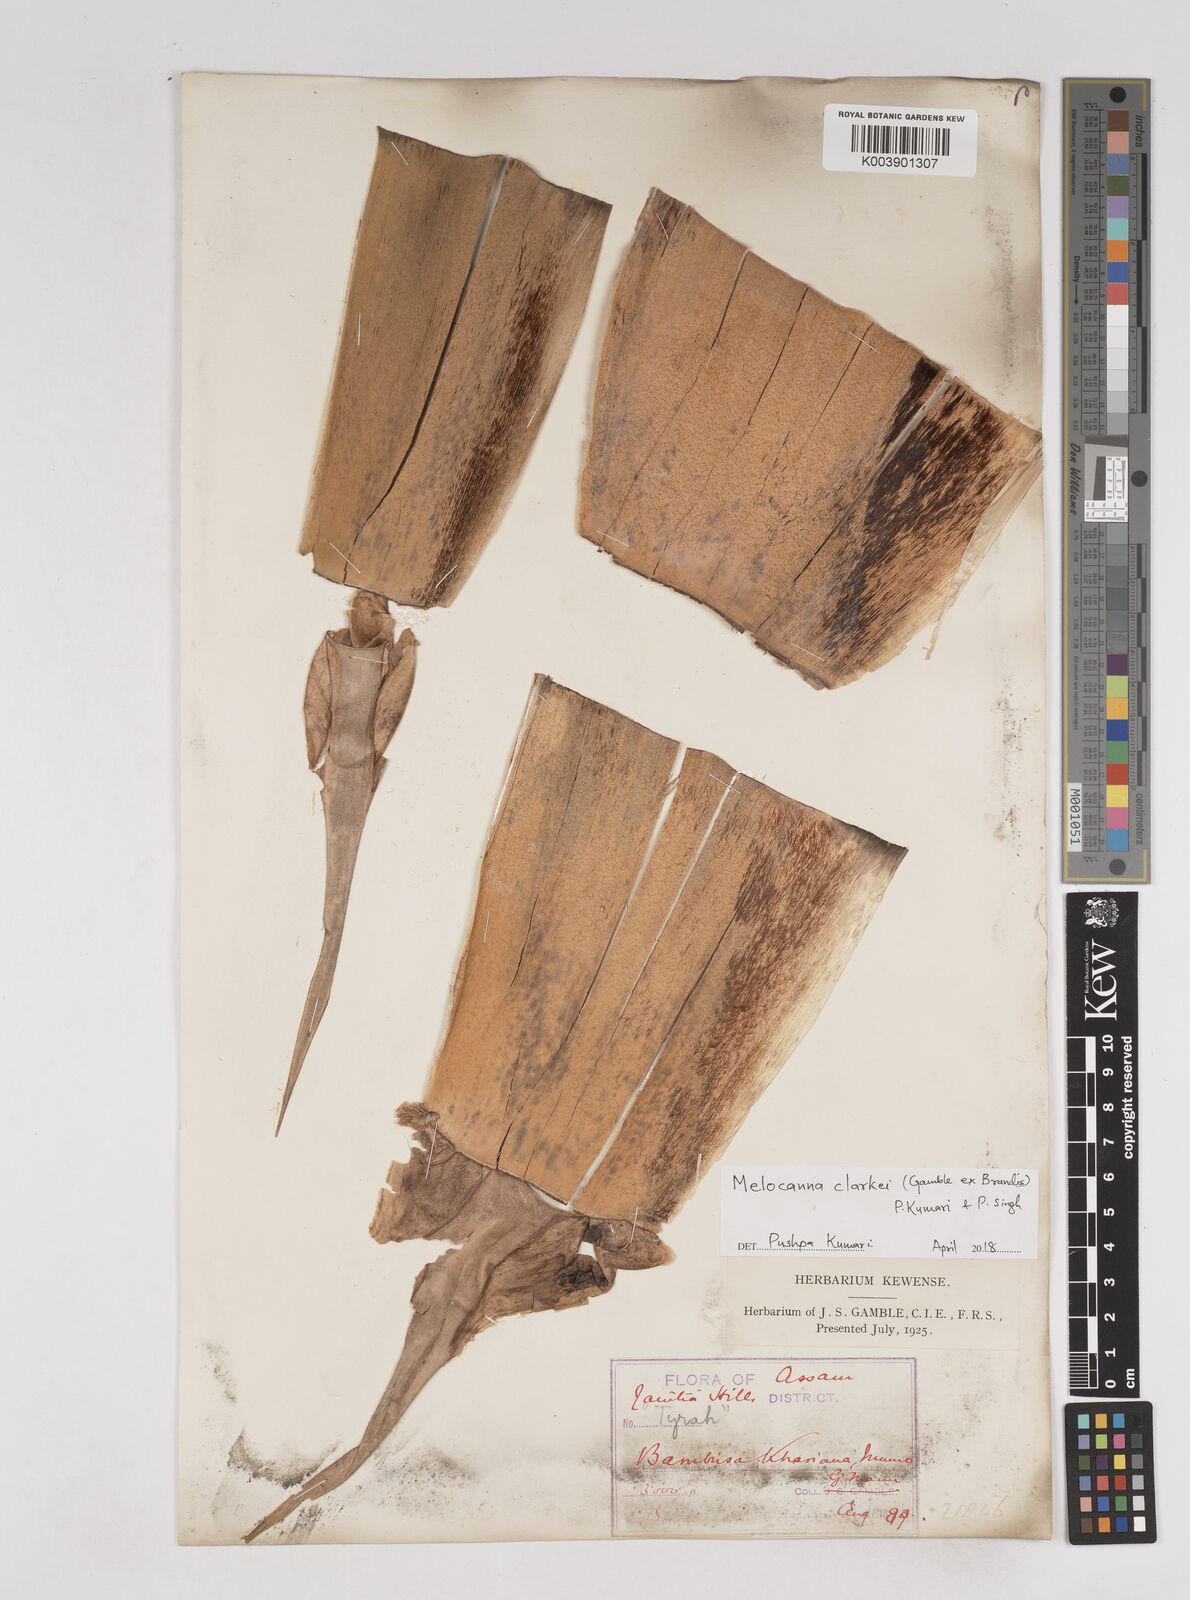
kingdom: Plantae
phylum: Tracheophyta
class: Liliopsida
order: Poales
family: Poaceae
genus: Melocanna
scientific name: Melocanna clarkei
